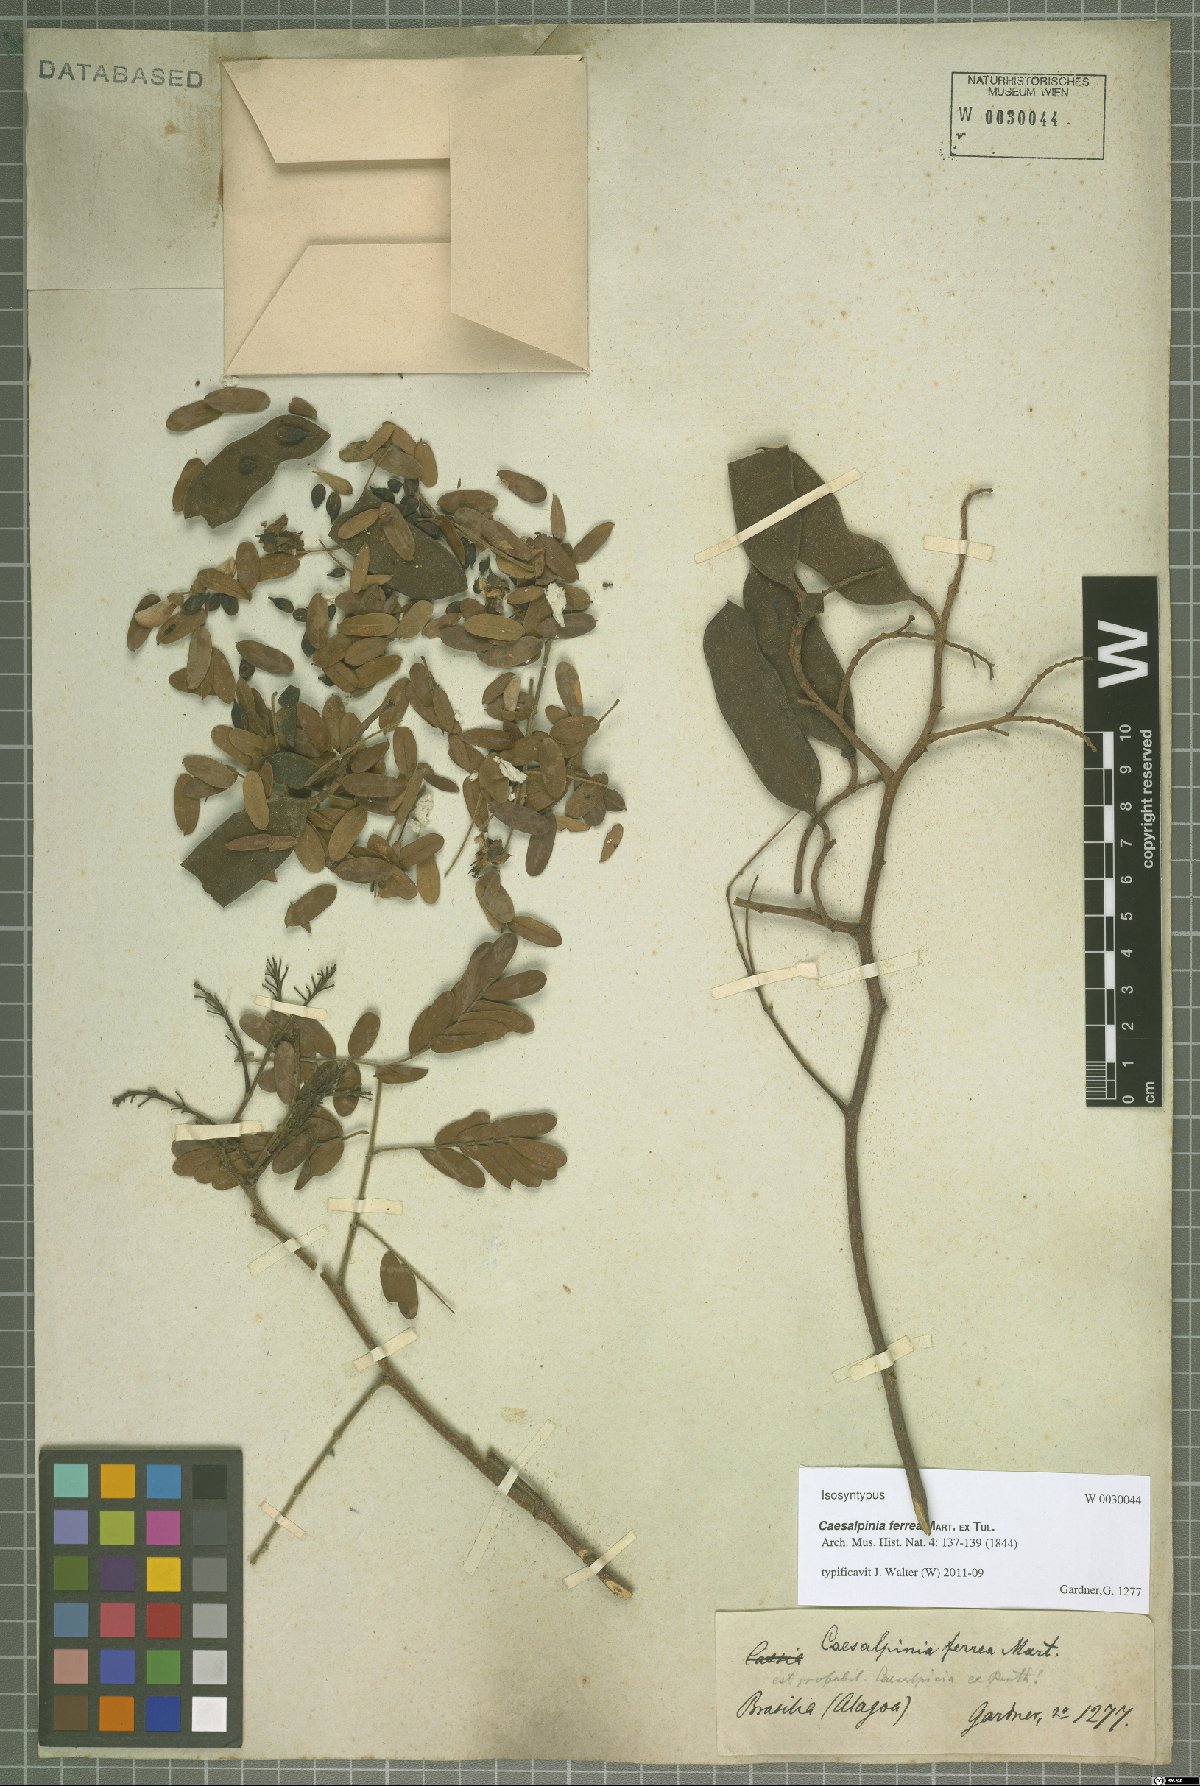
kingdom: Plantae
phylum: Tracheophyta
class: Magnoliopsida
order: Fabales
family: Fabaceae
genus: Libidibia
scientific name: Libidibia ferrea
